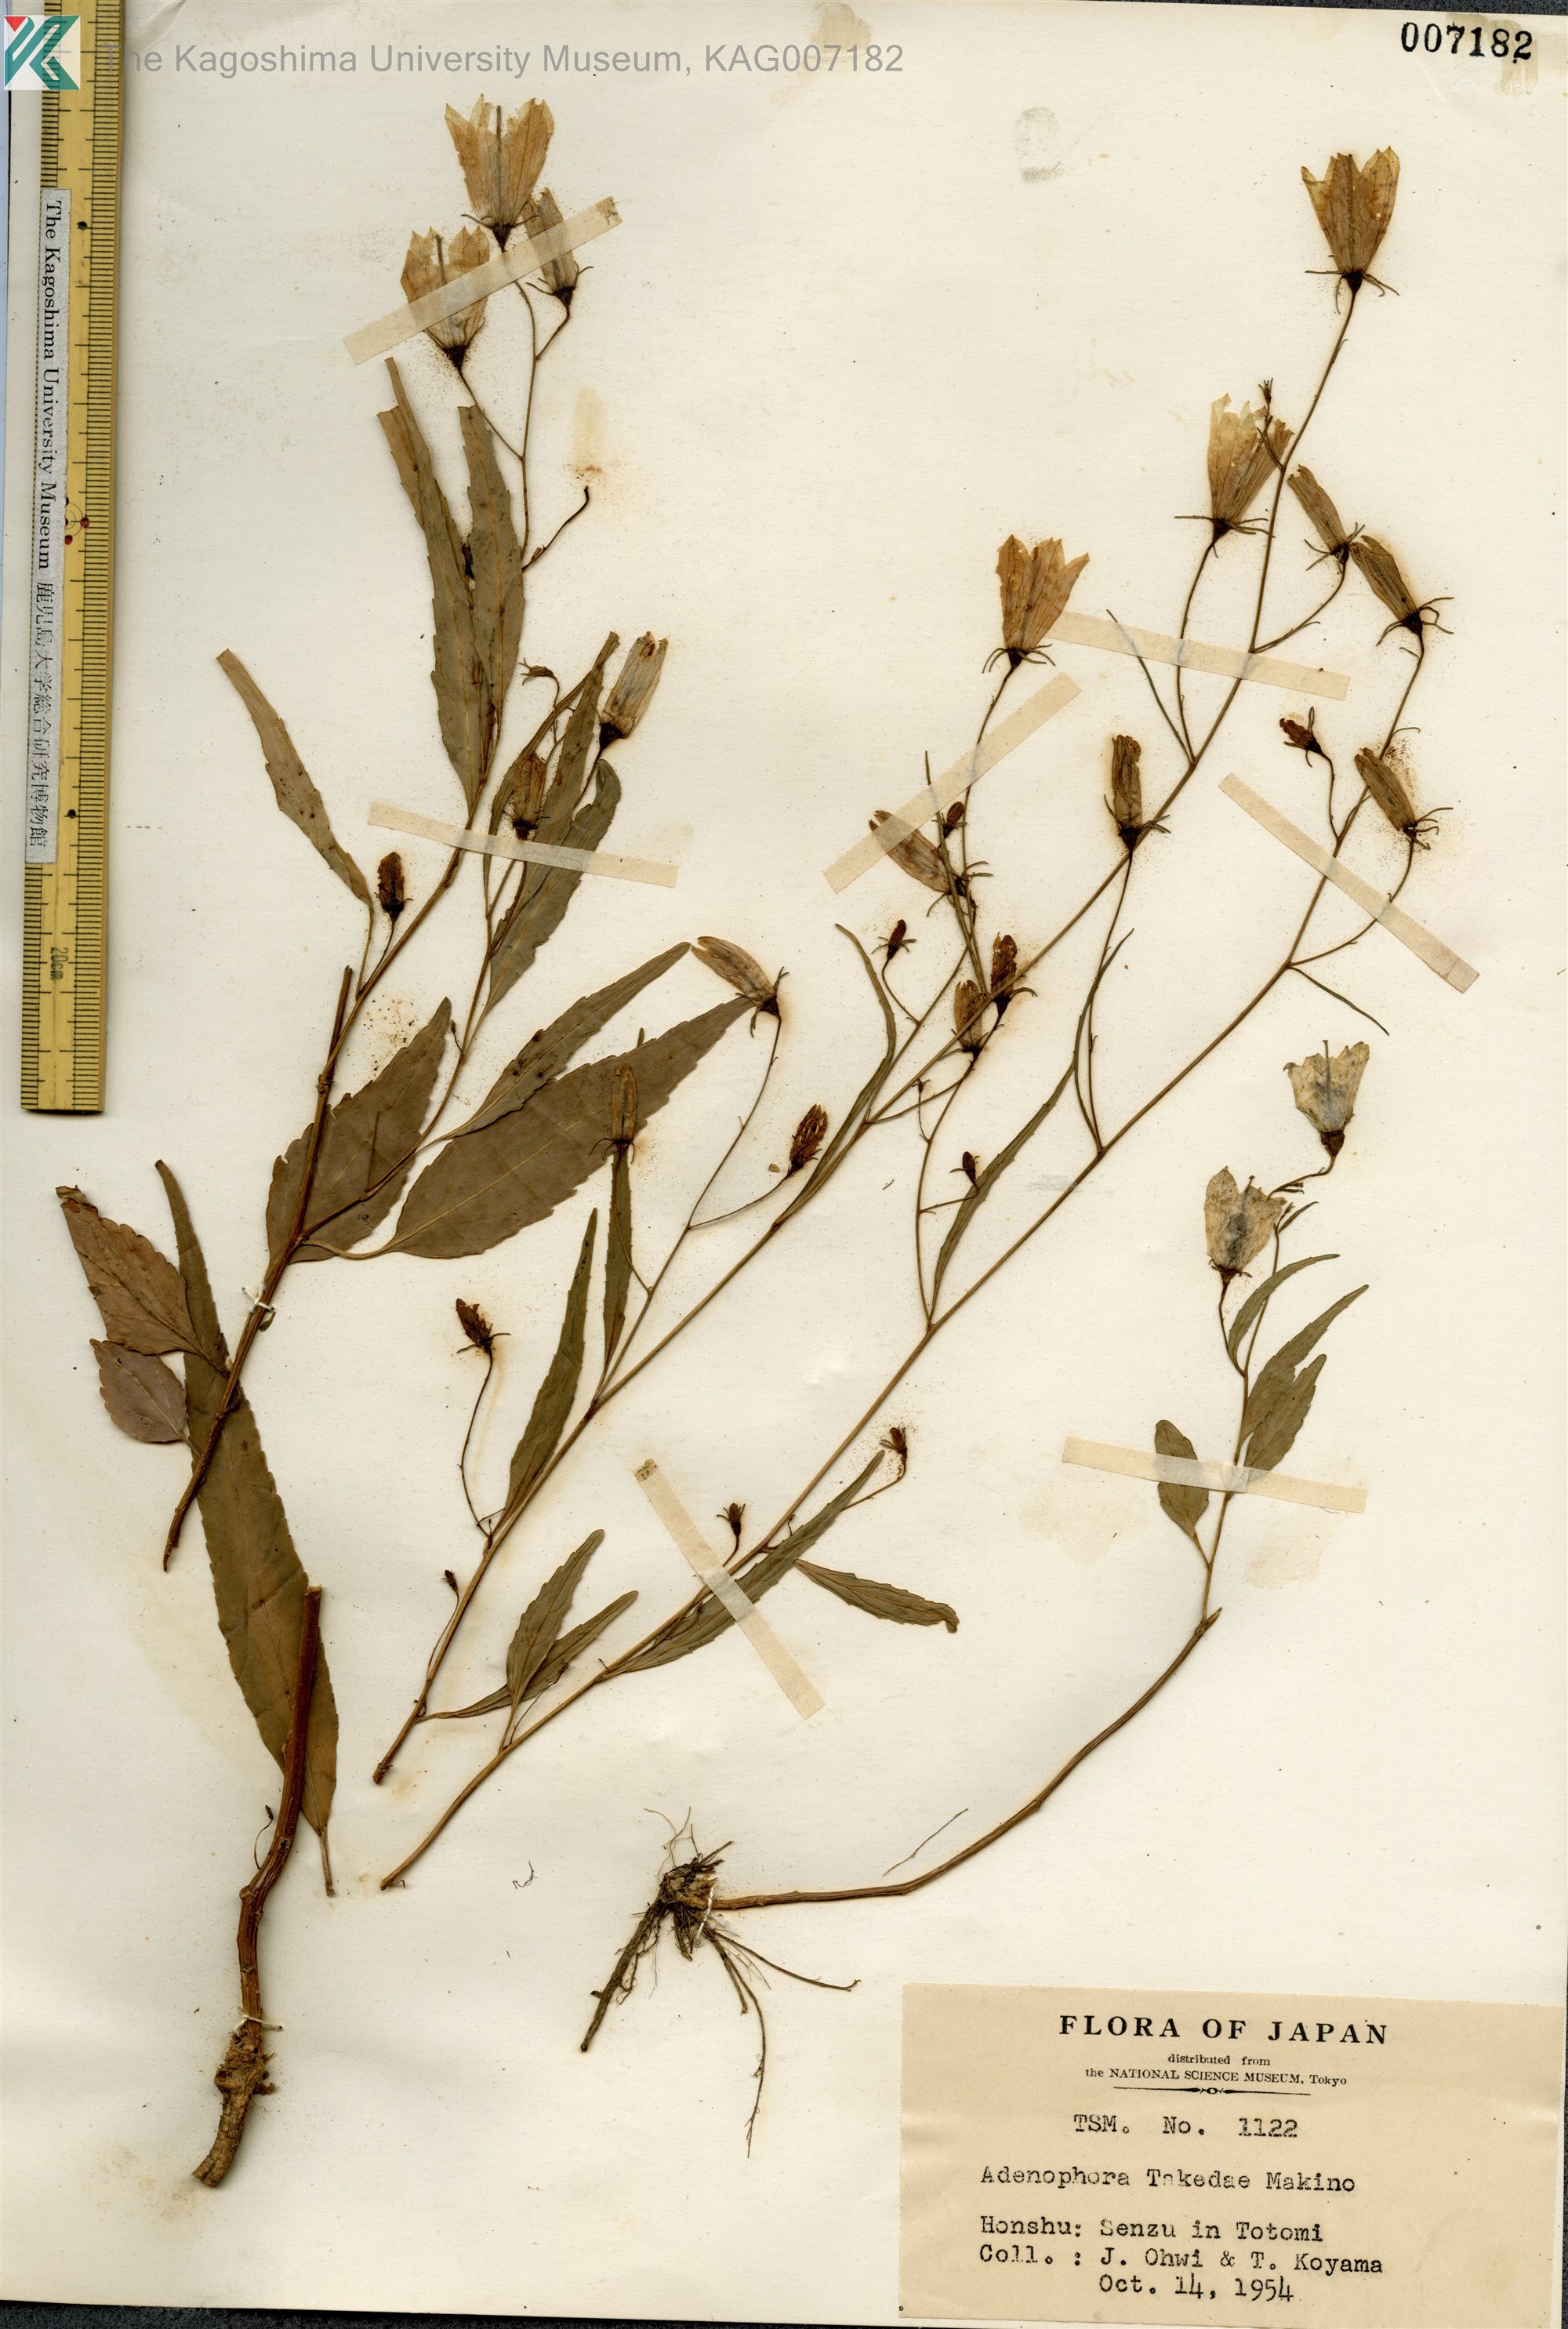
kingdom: Plantae
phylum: Tracheophyta
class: Magnoliopsida
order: Asterales
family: Campanulaceae
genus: Adenophora
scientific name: Adenophora takedae
